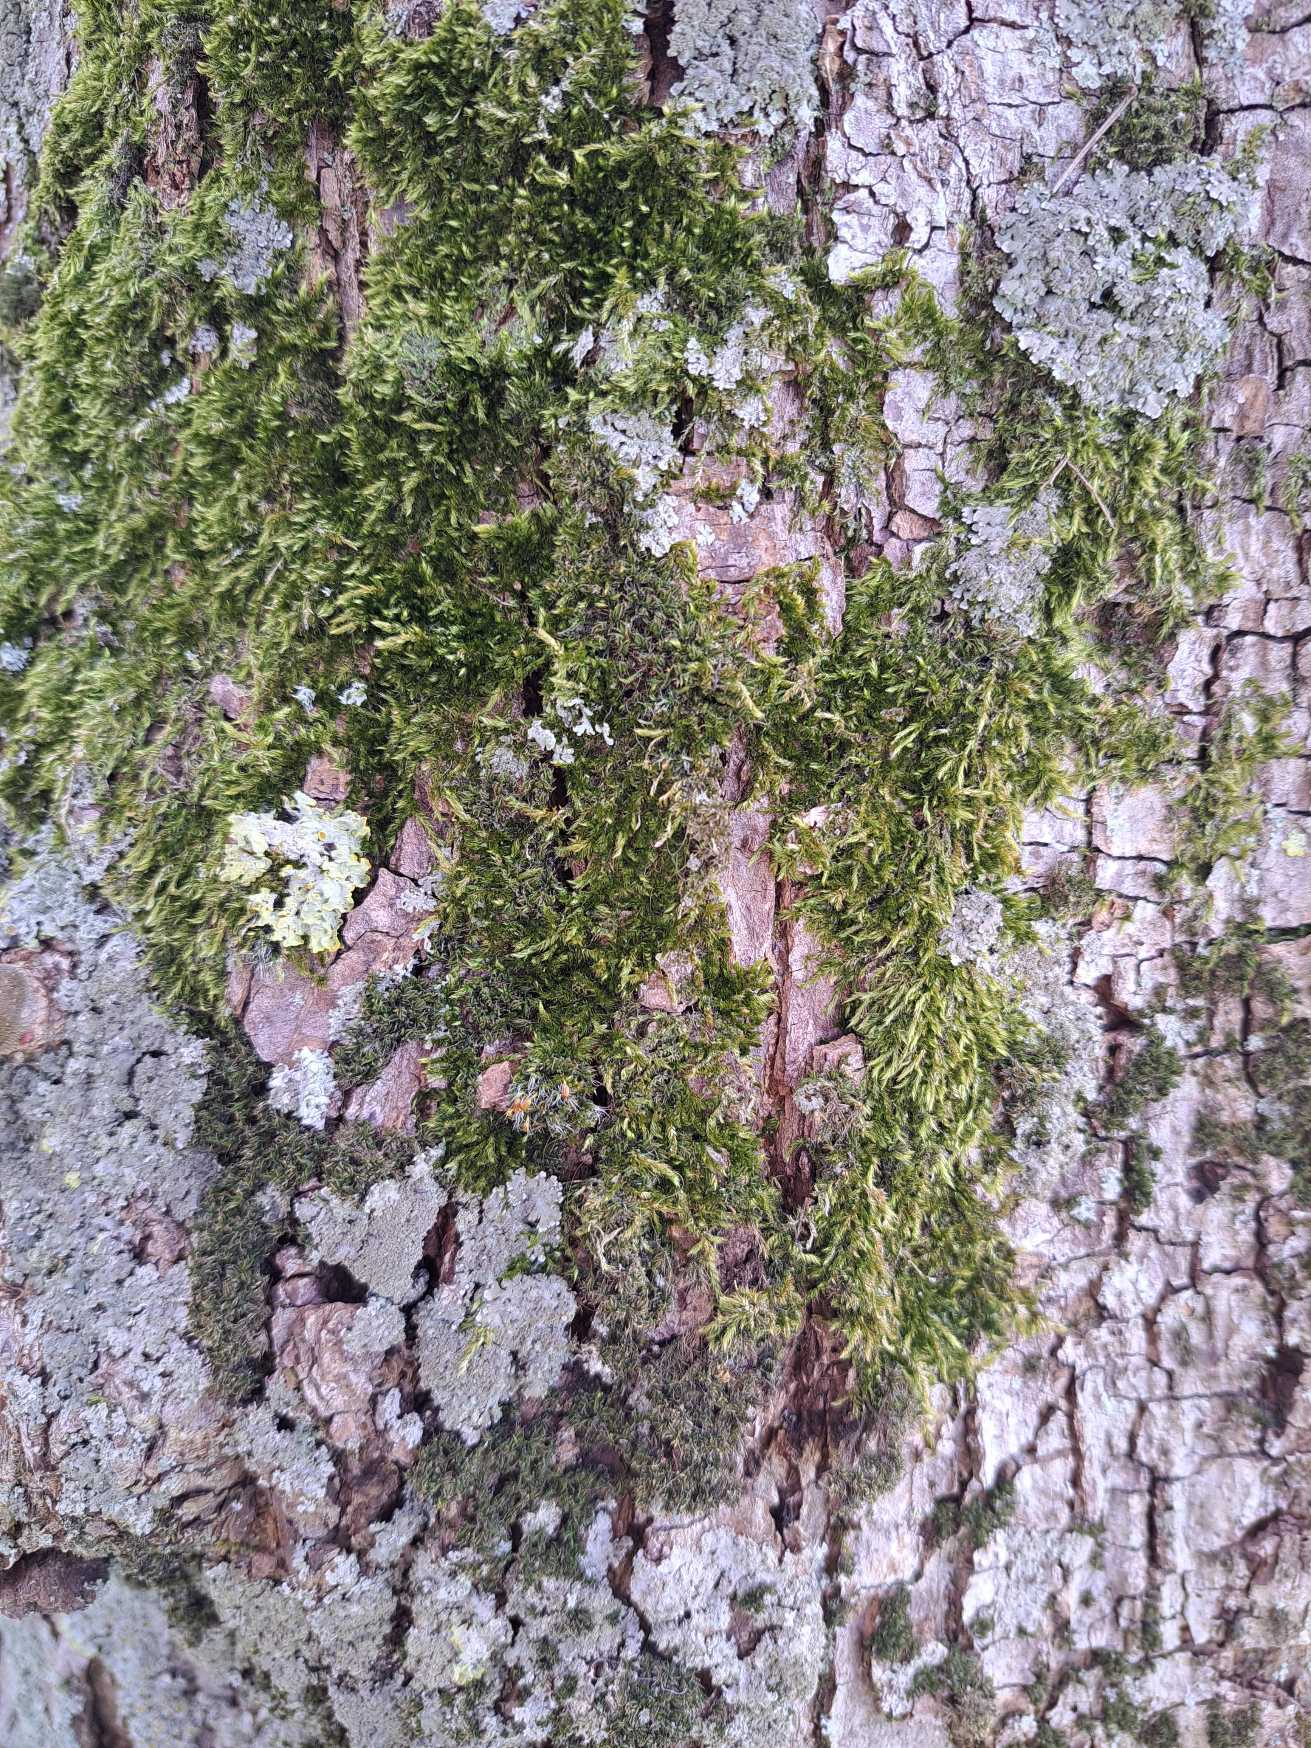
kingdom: Plantae
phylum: Bryophyta
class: Bryopsida
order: Hypnales
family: Hypnaceae
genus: Hypnum
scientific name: Hypnum
